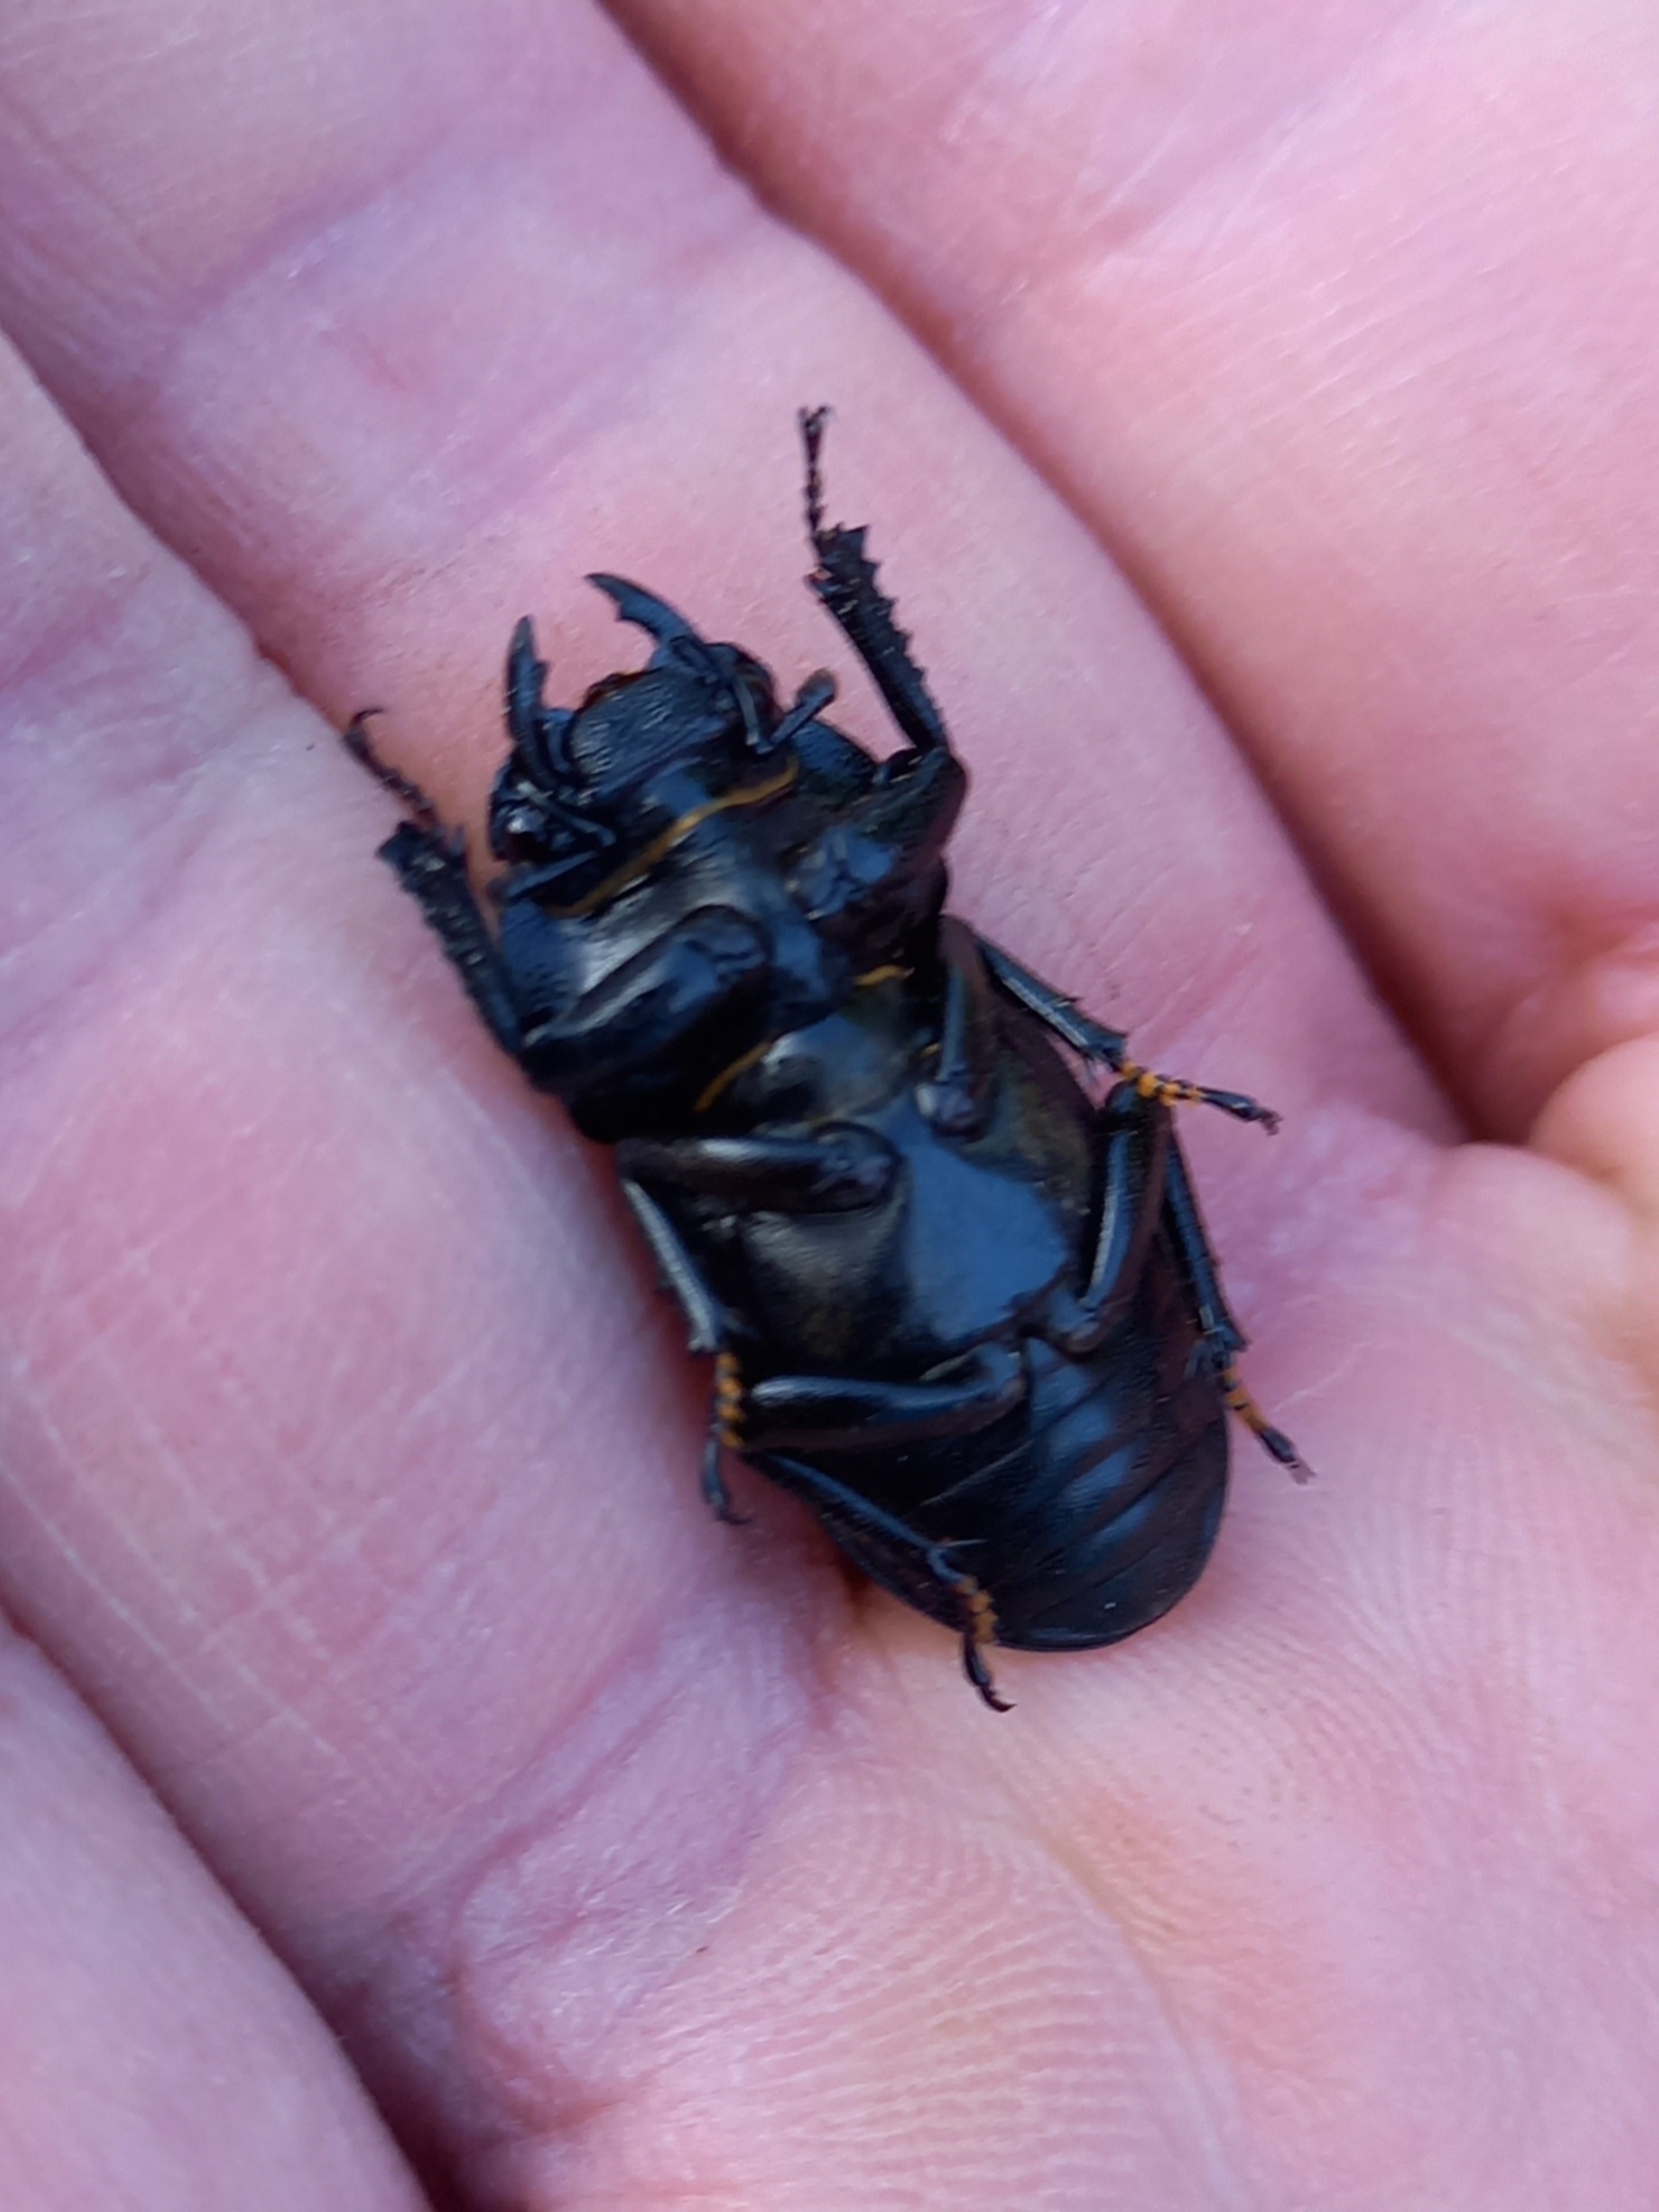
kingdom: Animalia
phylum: Arthropoda
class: Insecta
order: Coleoptera
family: Lucanidae
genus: Dorcus
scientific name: Dorcus parallelipipedus
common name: Bøghjort
